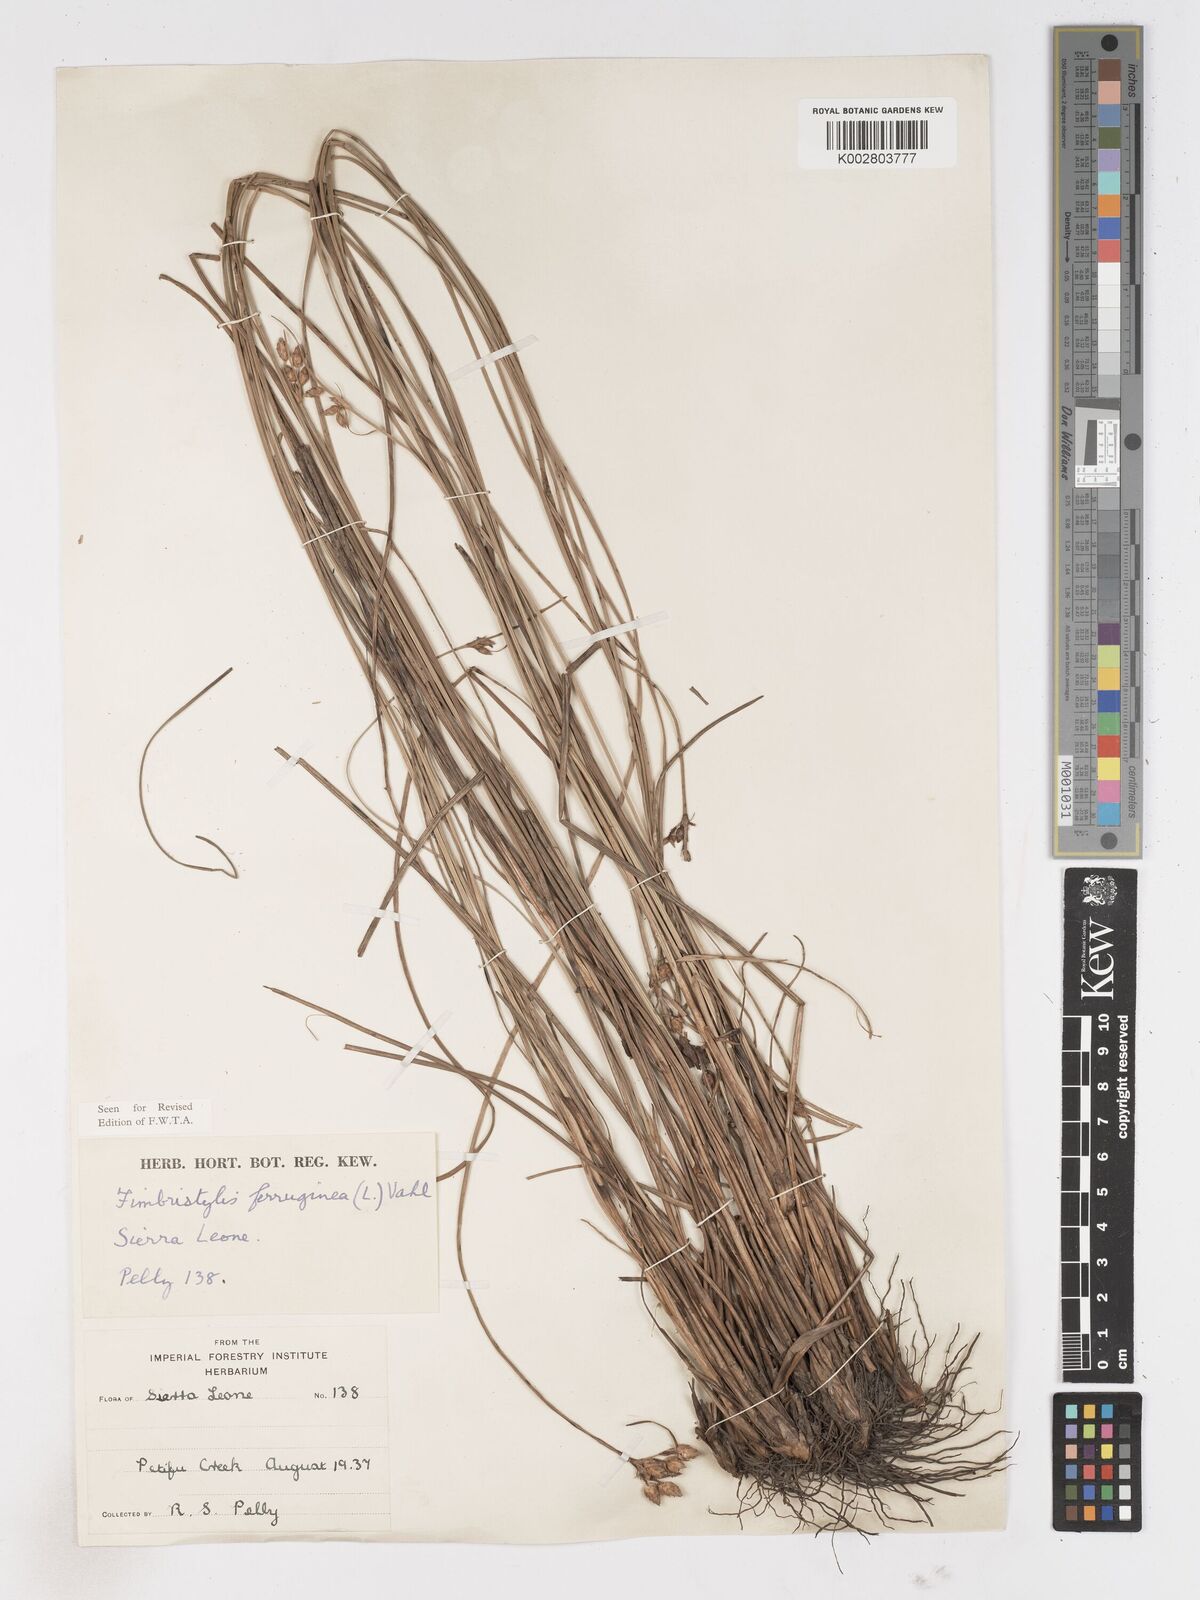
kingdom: Plantae
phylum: Tracheophyta
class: Liliopsida
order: Poales
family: Cyperaceae
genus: Fimbristylis
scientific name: Fimbristylis ferruginea
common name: West indian fimbry
